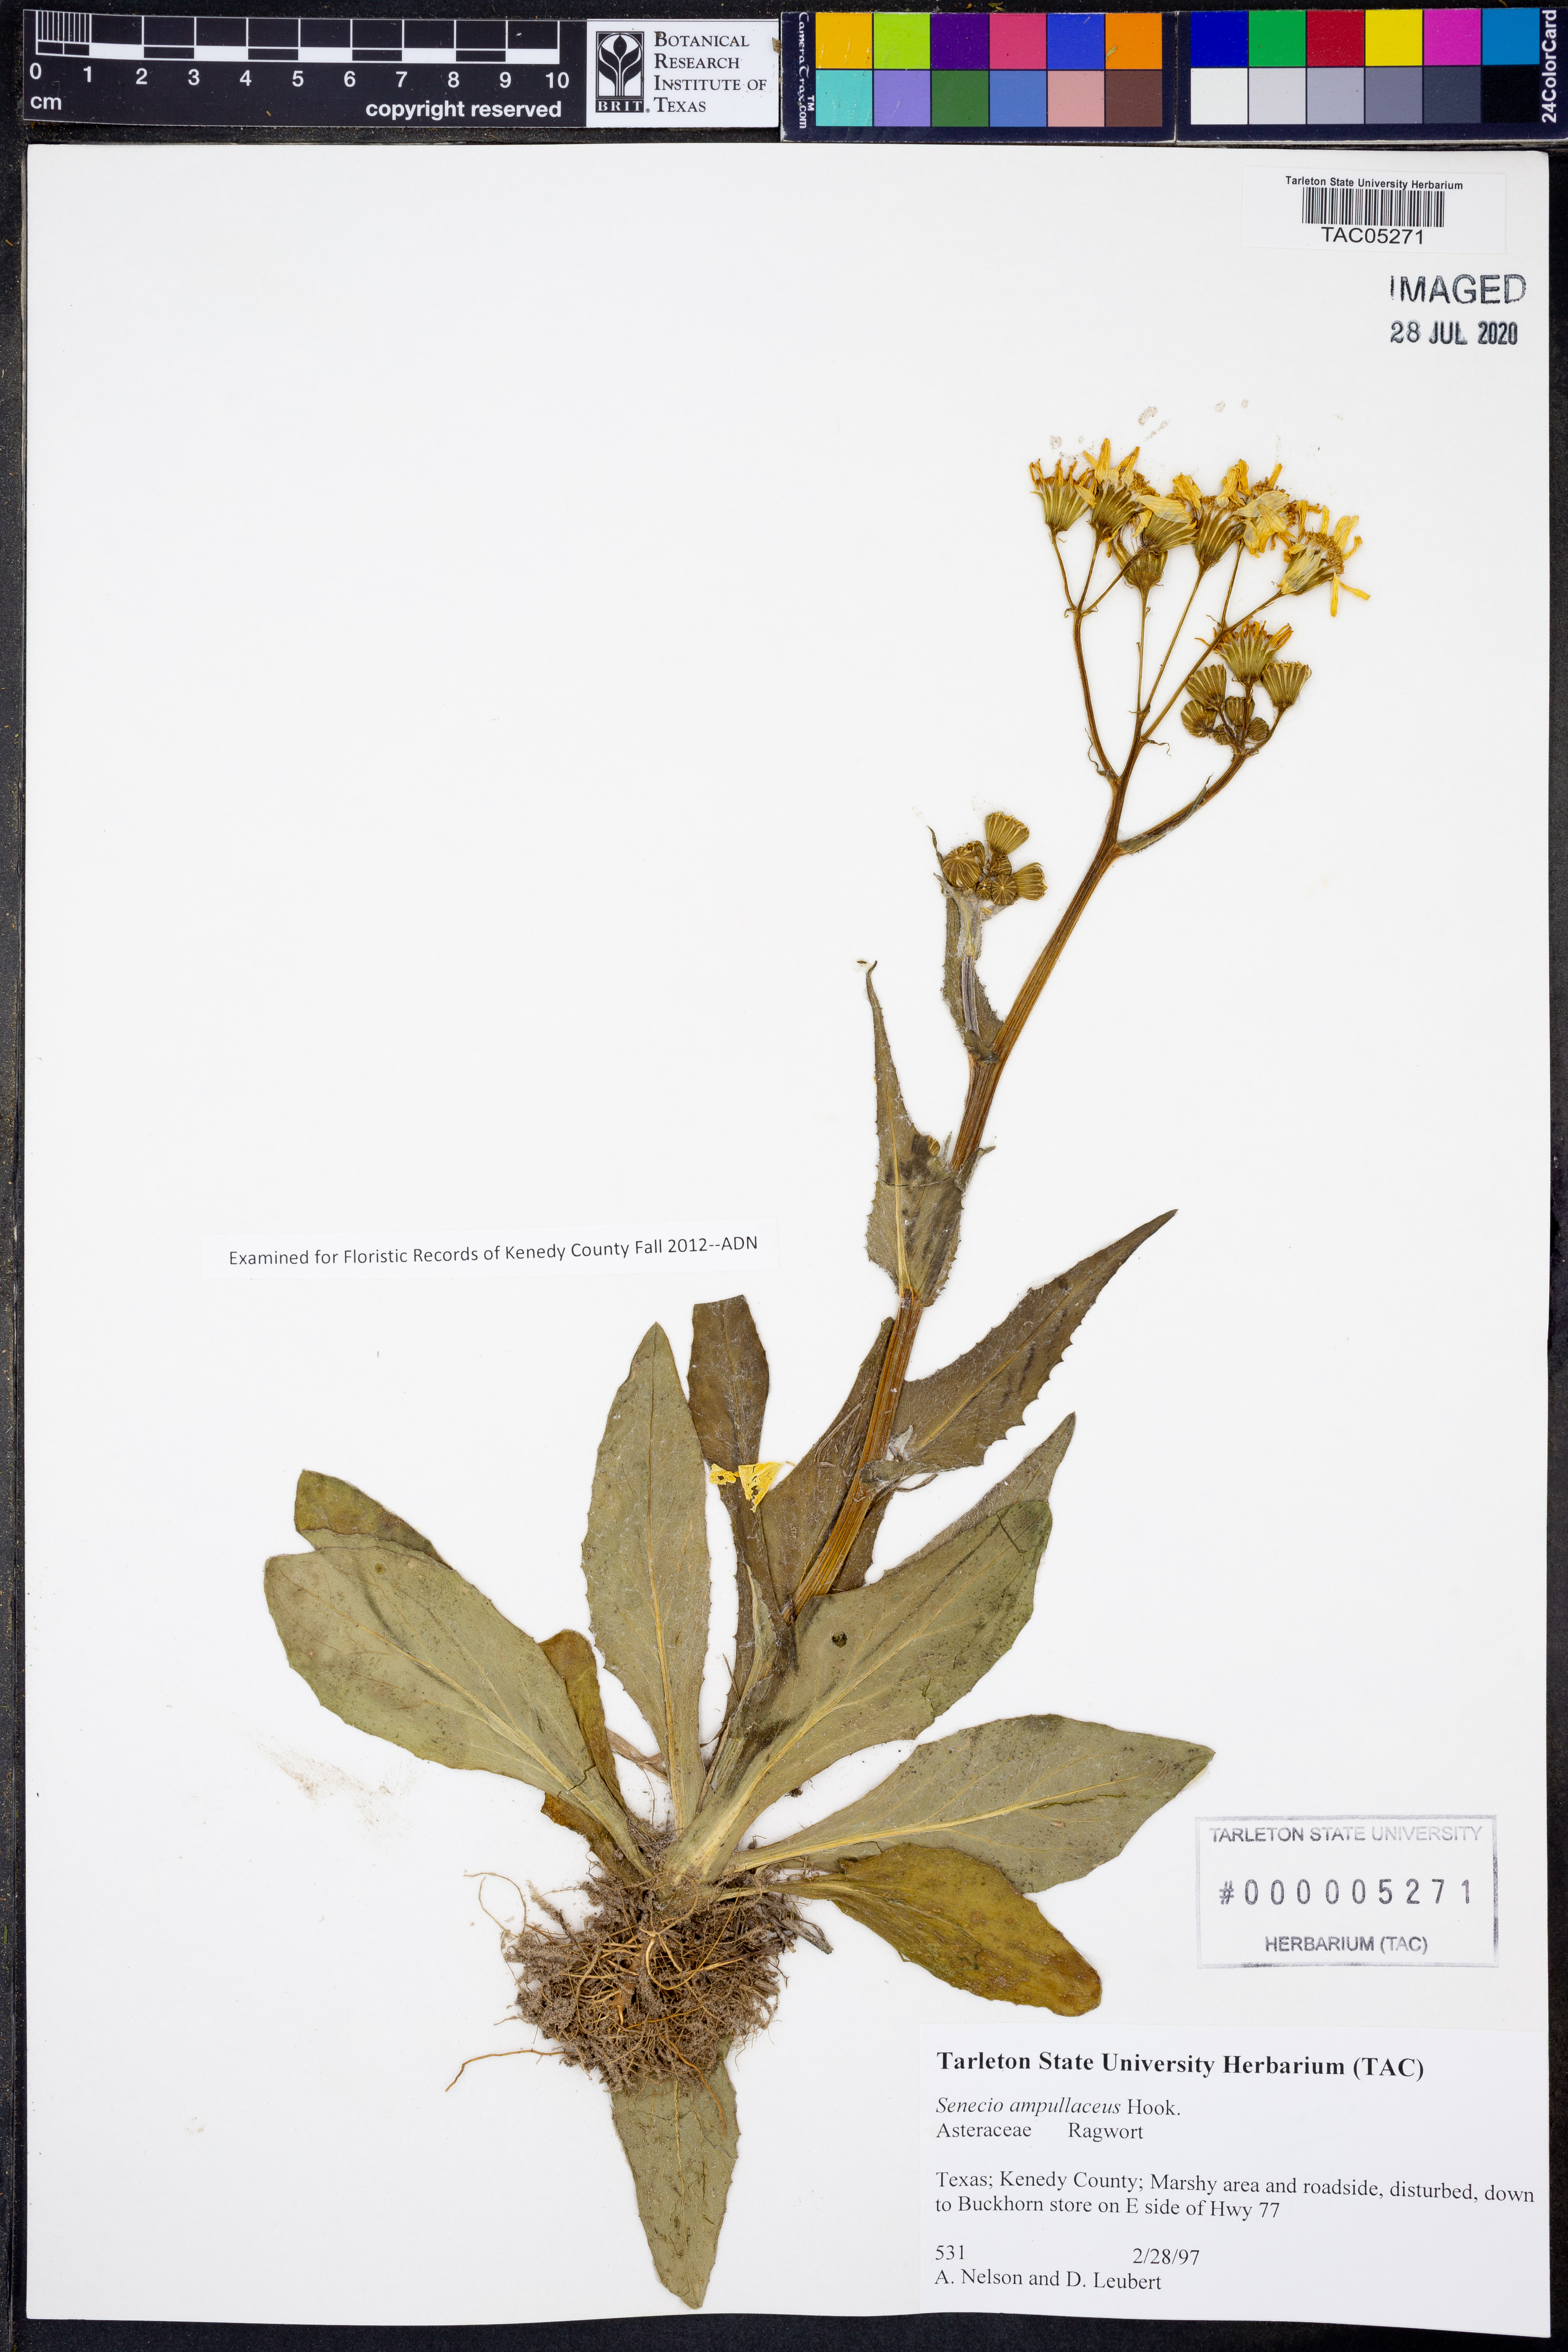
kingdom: Plantae
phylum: Tracheophyta
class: Magnoliopsida
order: Asterales
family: Asteraceae
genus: Senecio
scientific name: Senecio ampullaceus
